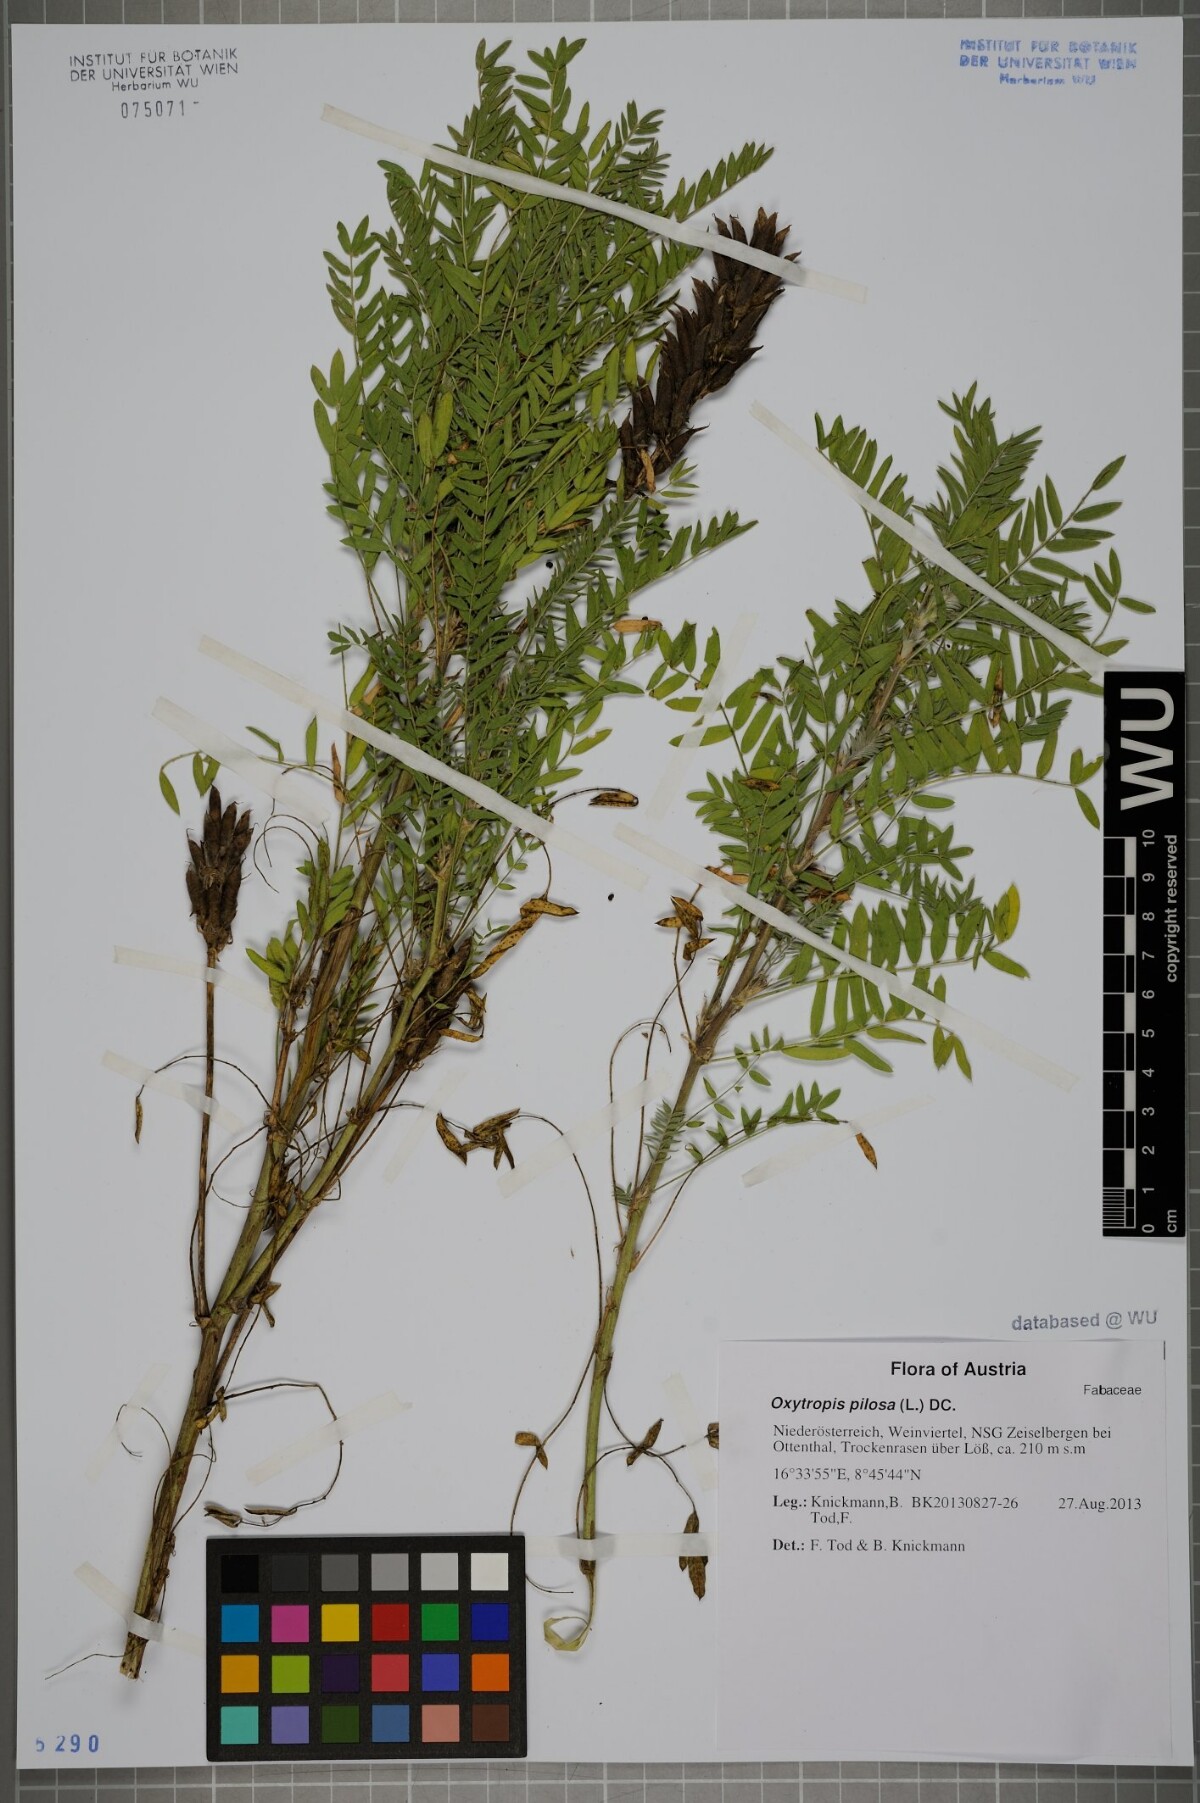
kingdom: Plantae
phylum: Tracheophyta
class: Magnoliopsida
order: Fabales
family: Fabaceae
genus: Oxytropis
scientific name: Oxytropis pilosa
